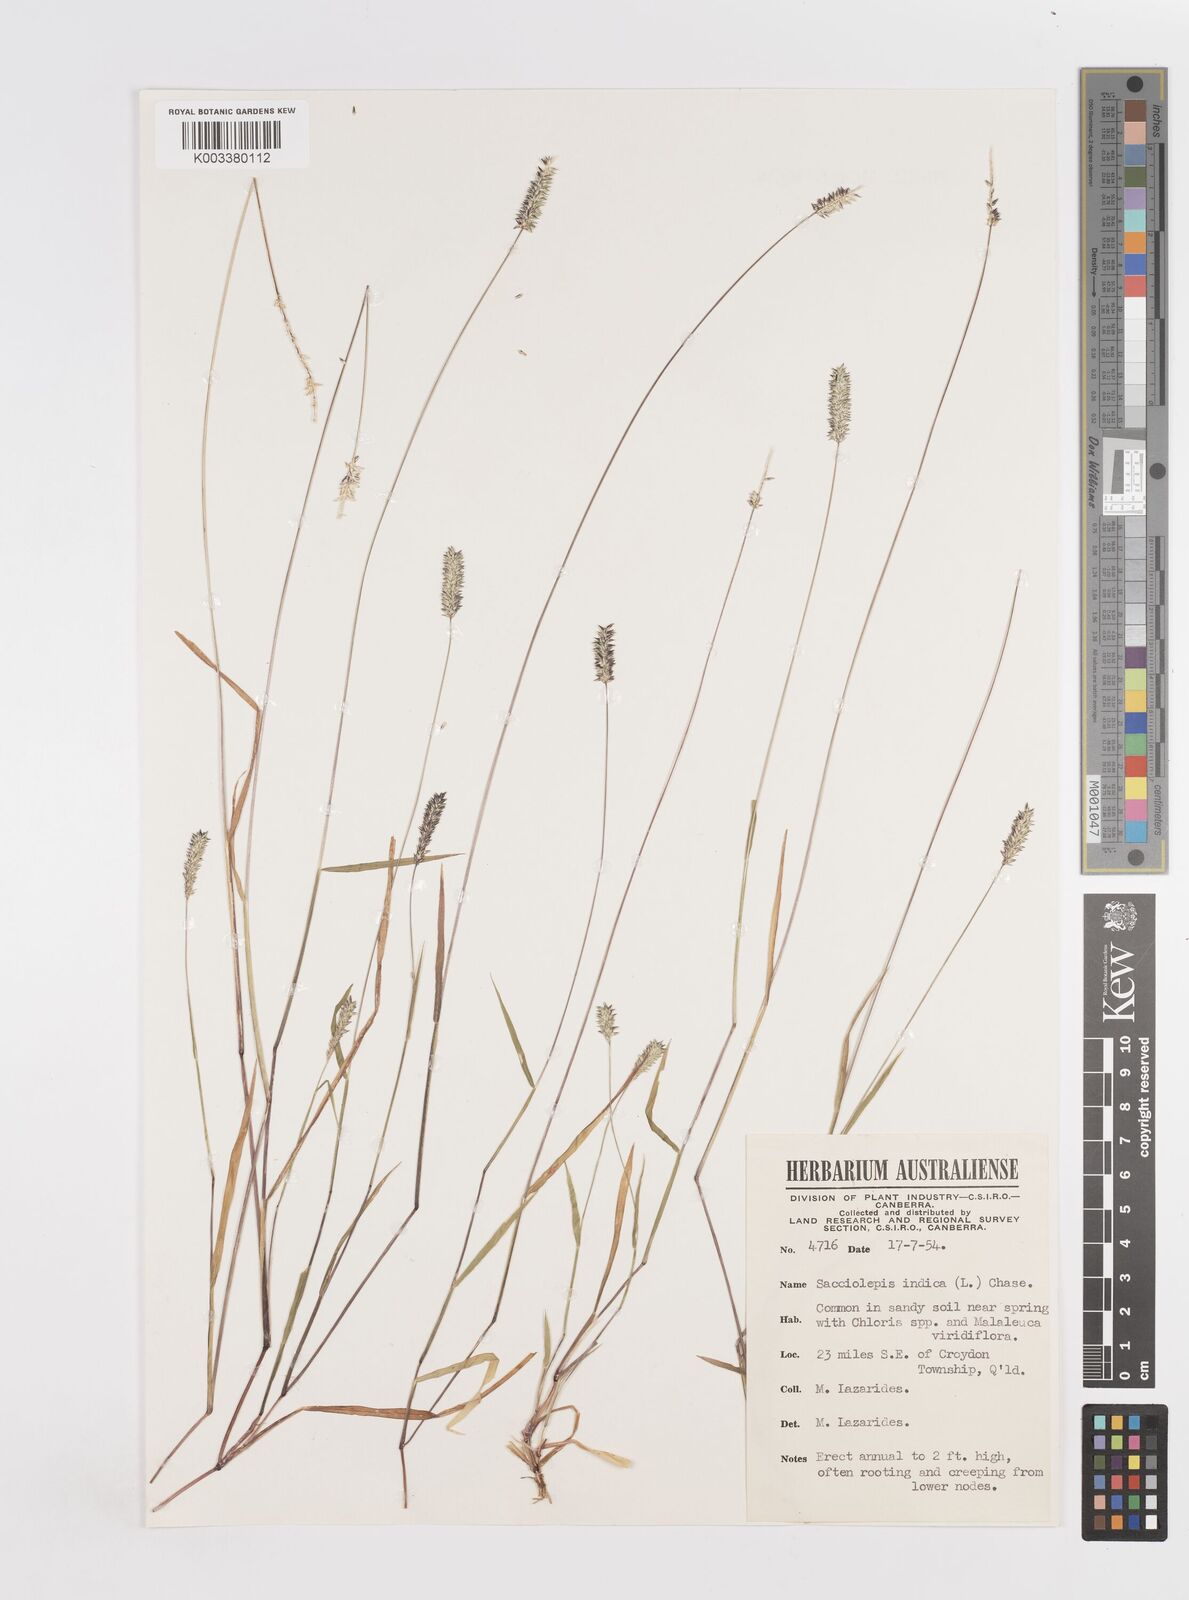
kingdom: Plantae
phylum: Tracheophyta
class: Liliopsida
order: Poales
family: Poaceae
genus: Sacciolepis
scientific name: Sacciolepis indica
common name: Glenwoodgrass
